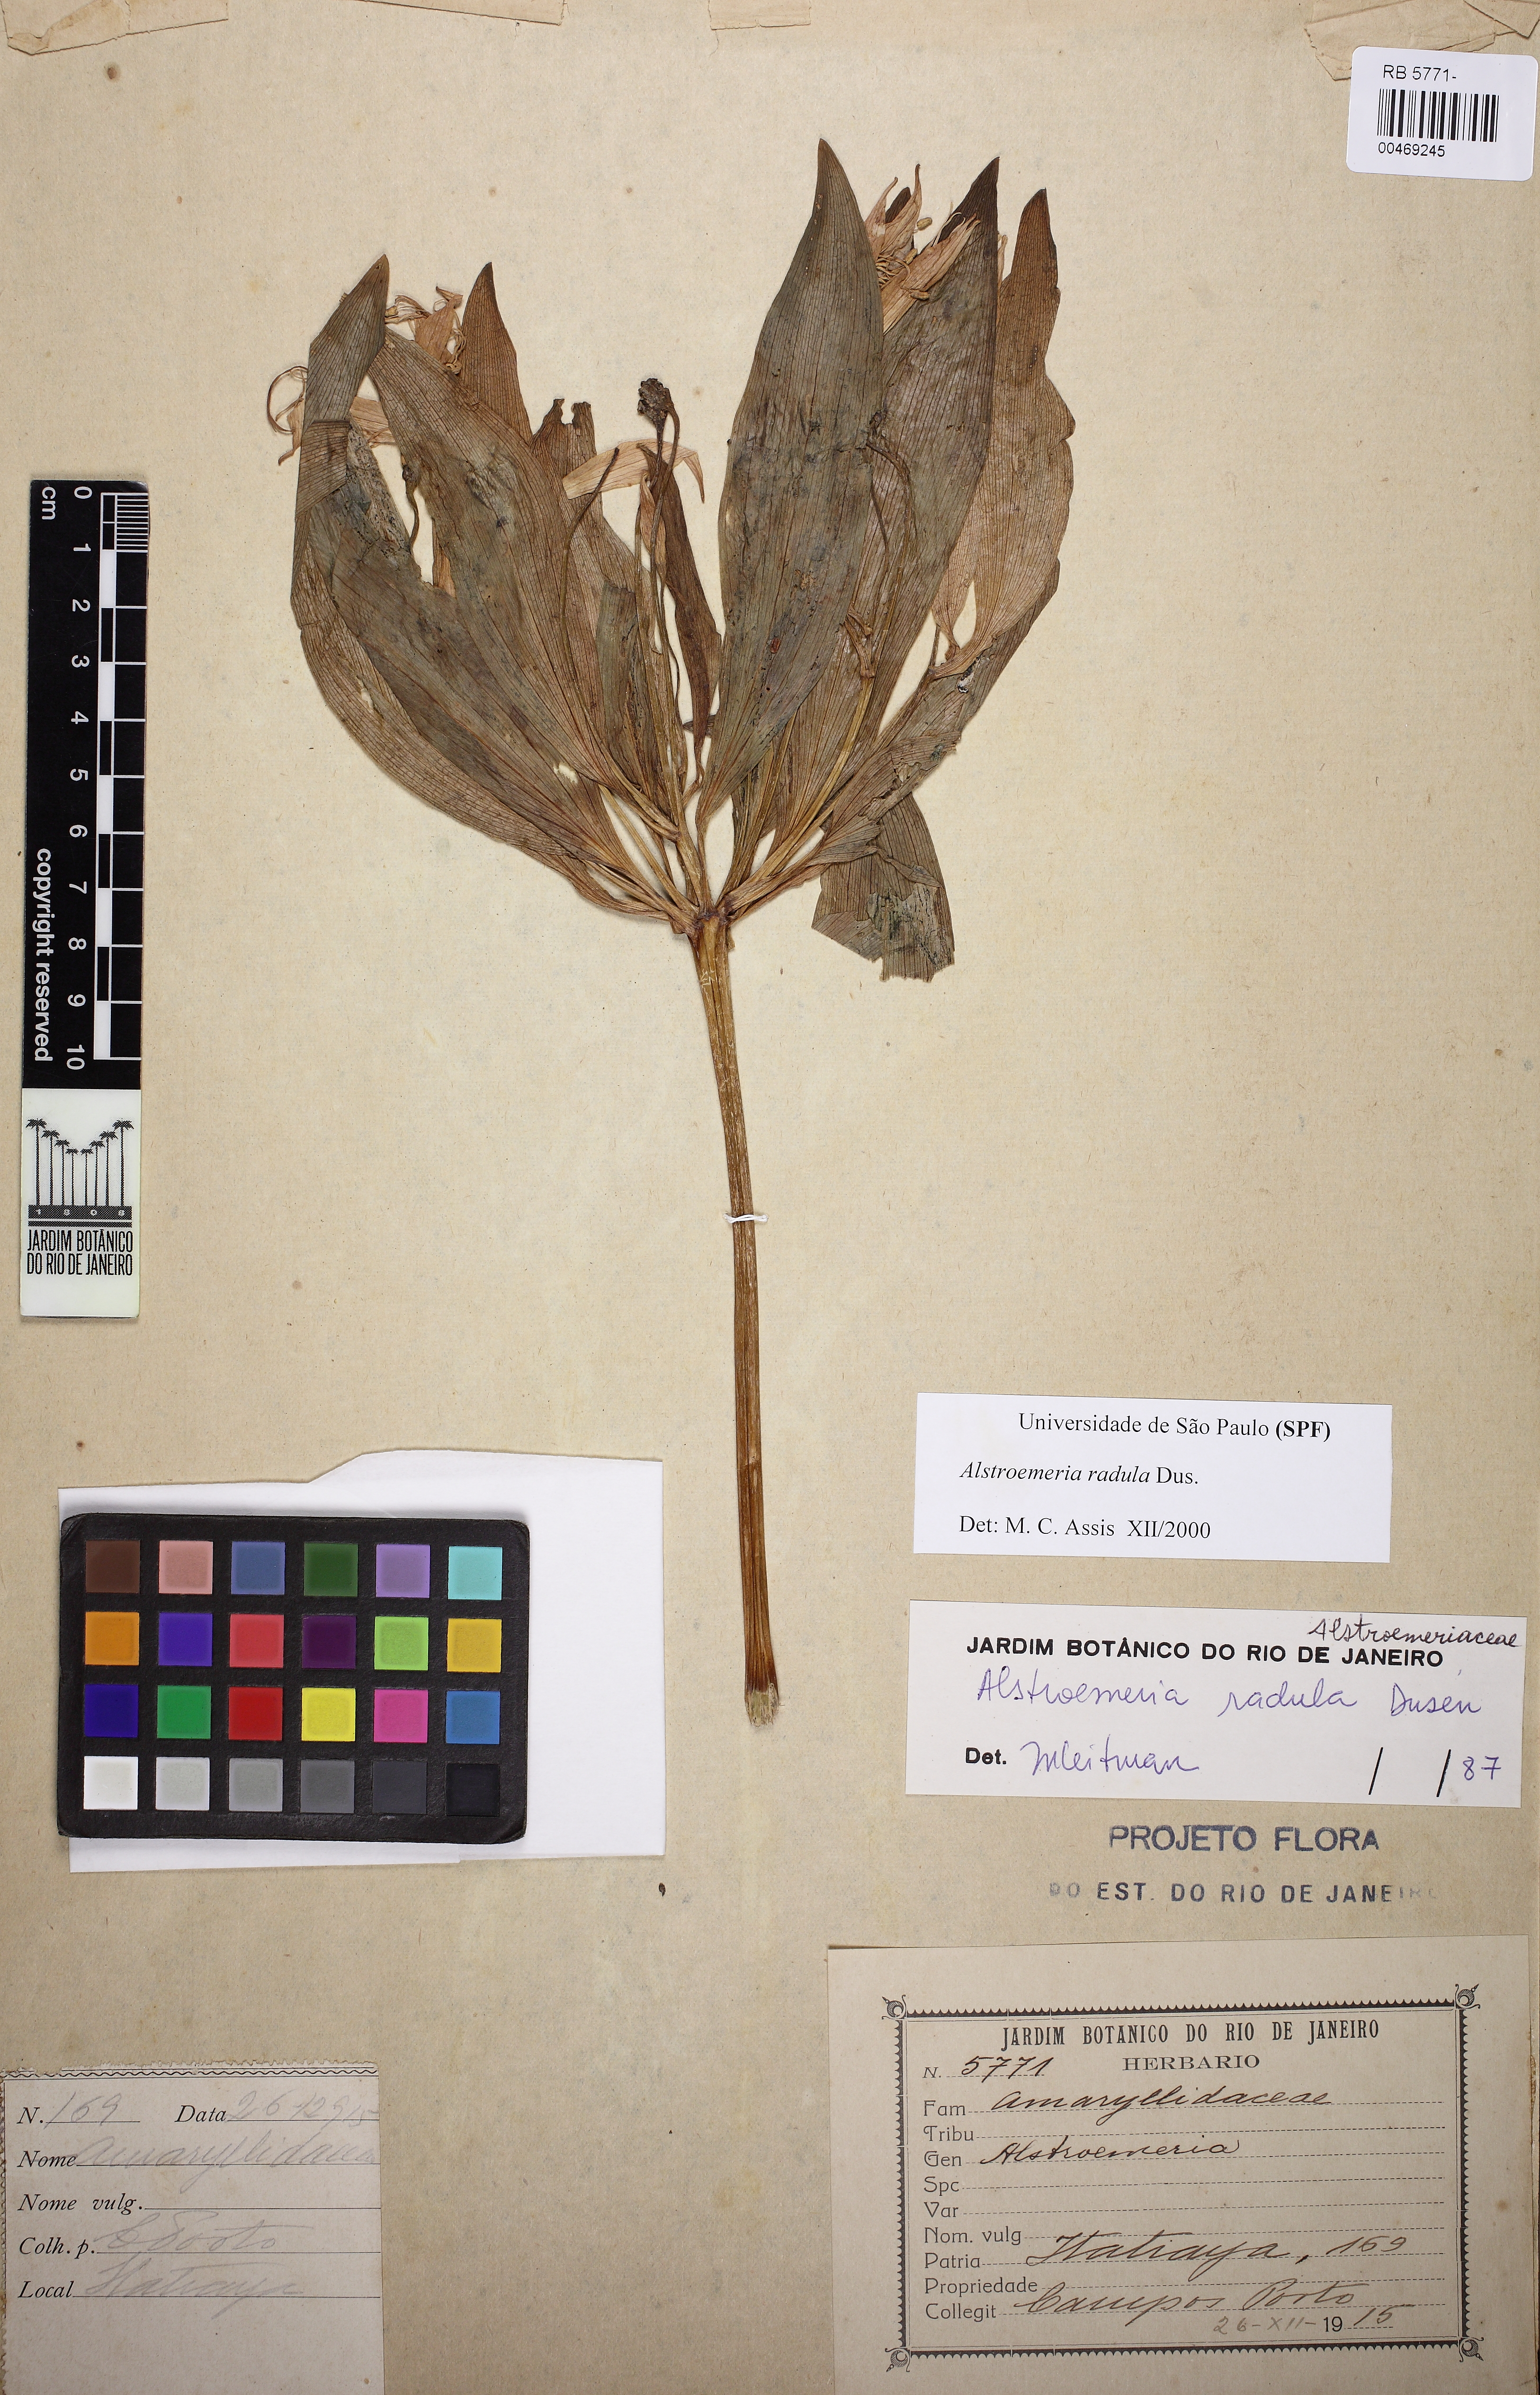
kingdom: Plantae
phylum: Tracheophyta
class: Liliopsida
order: Liliales
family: Alstroemeriaceae
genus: Alstroemeria
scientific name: Alstroemeria radula
